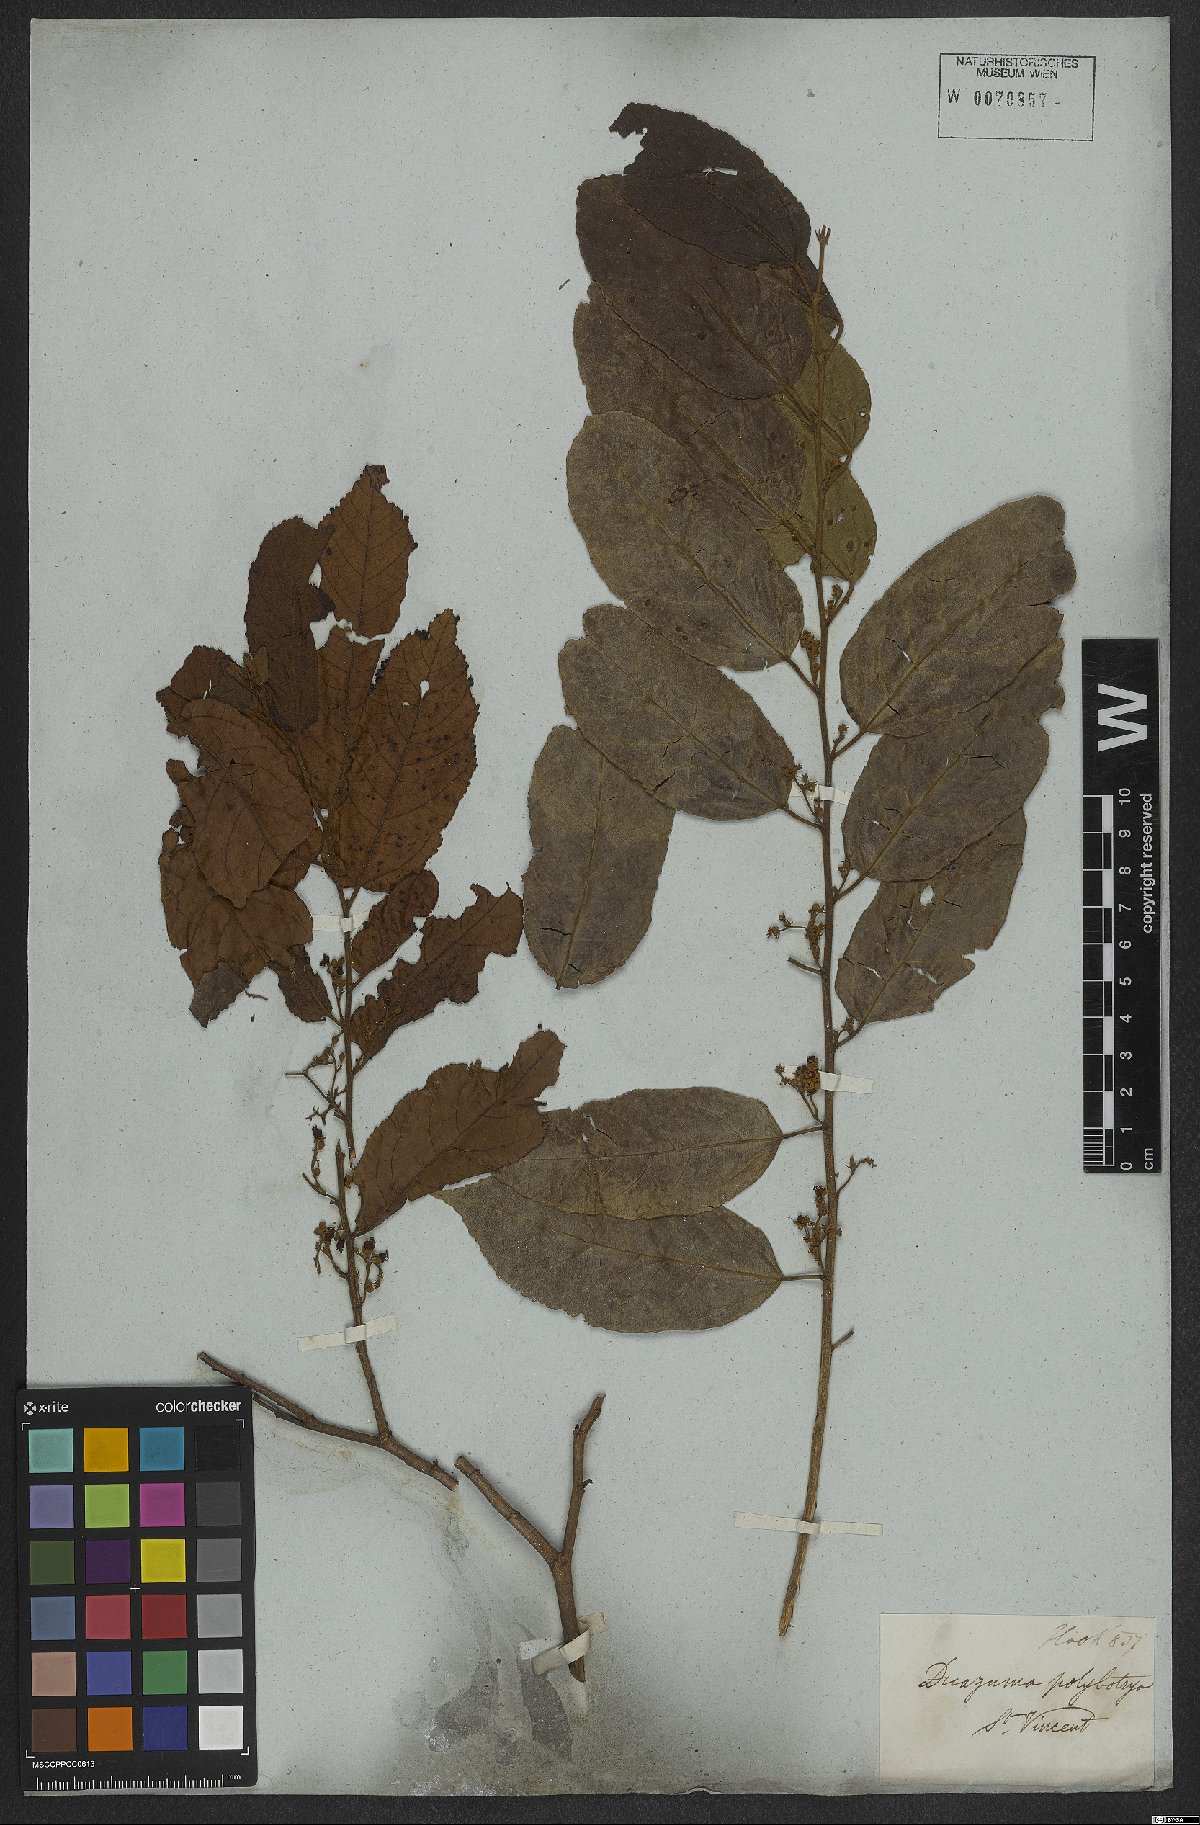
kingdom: Plantae
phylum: Tracheophyta
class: Magnoliopsida
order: Malvales
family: Malvaceae
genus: Guazuma
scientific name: Guazuma ulmifolia
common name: Bastard-cedar
